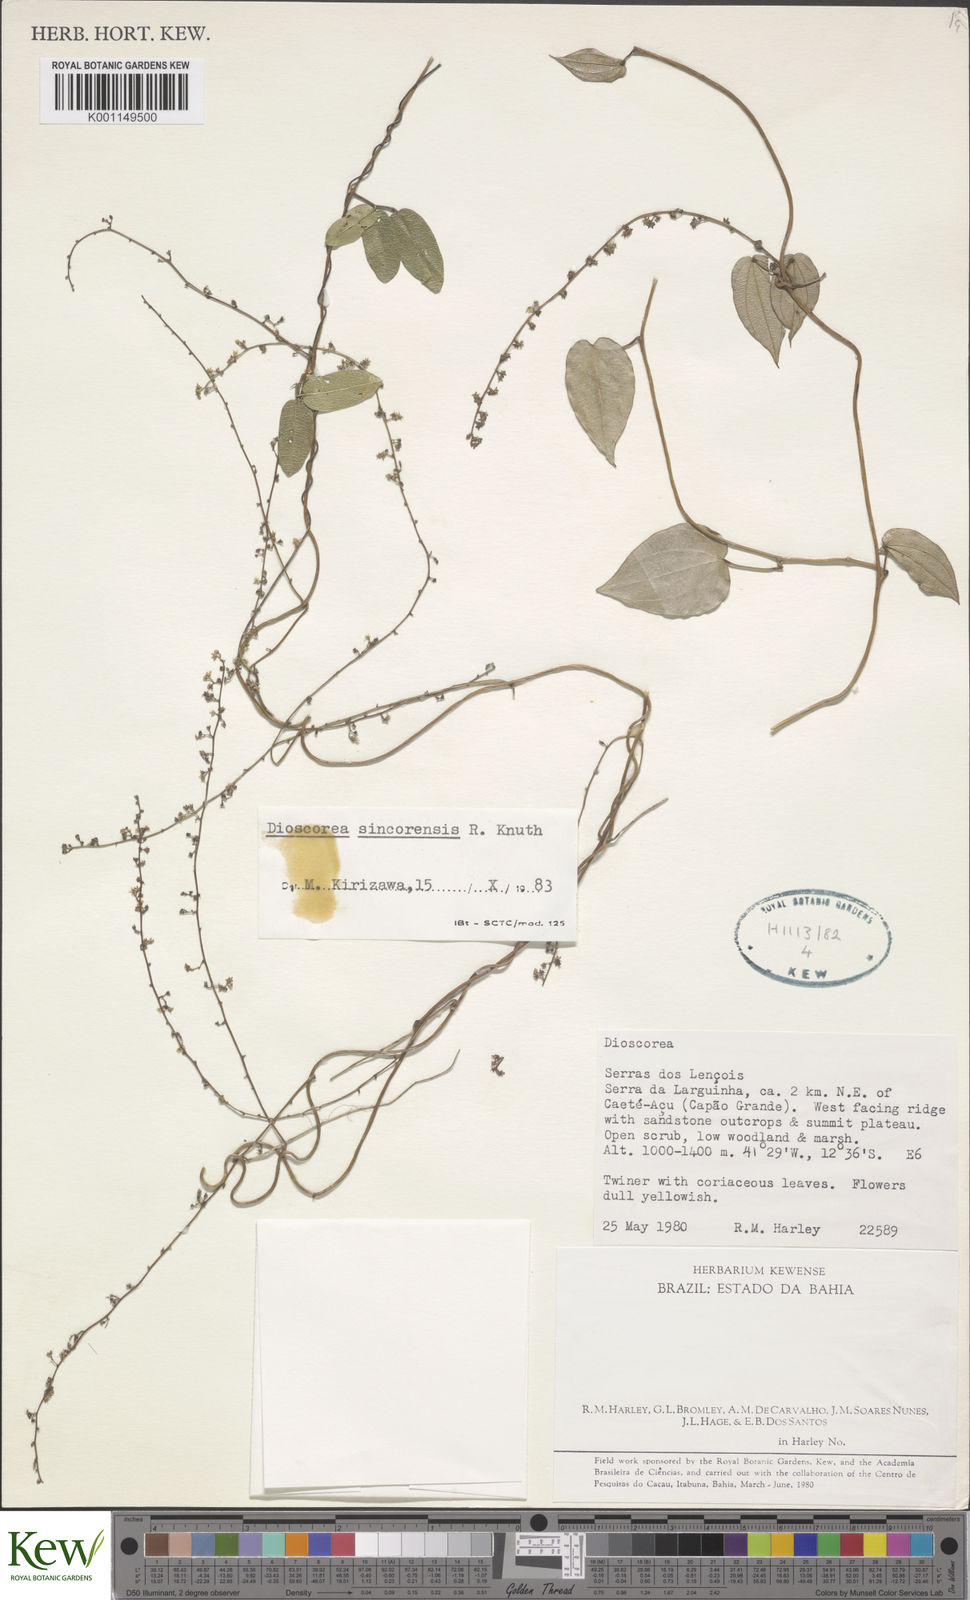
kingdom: Plantae
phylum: Tracheophyta
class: Liliopsida
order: Dioscoreales
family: Dioscoreaceae
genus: Dioscorea
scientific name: Dioscorea sincorensis
